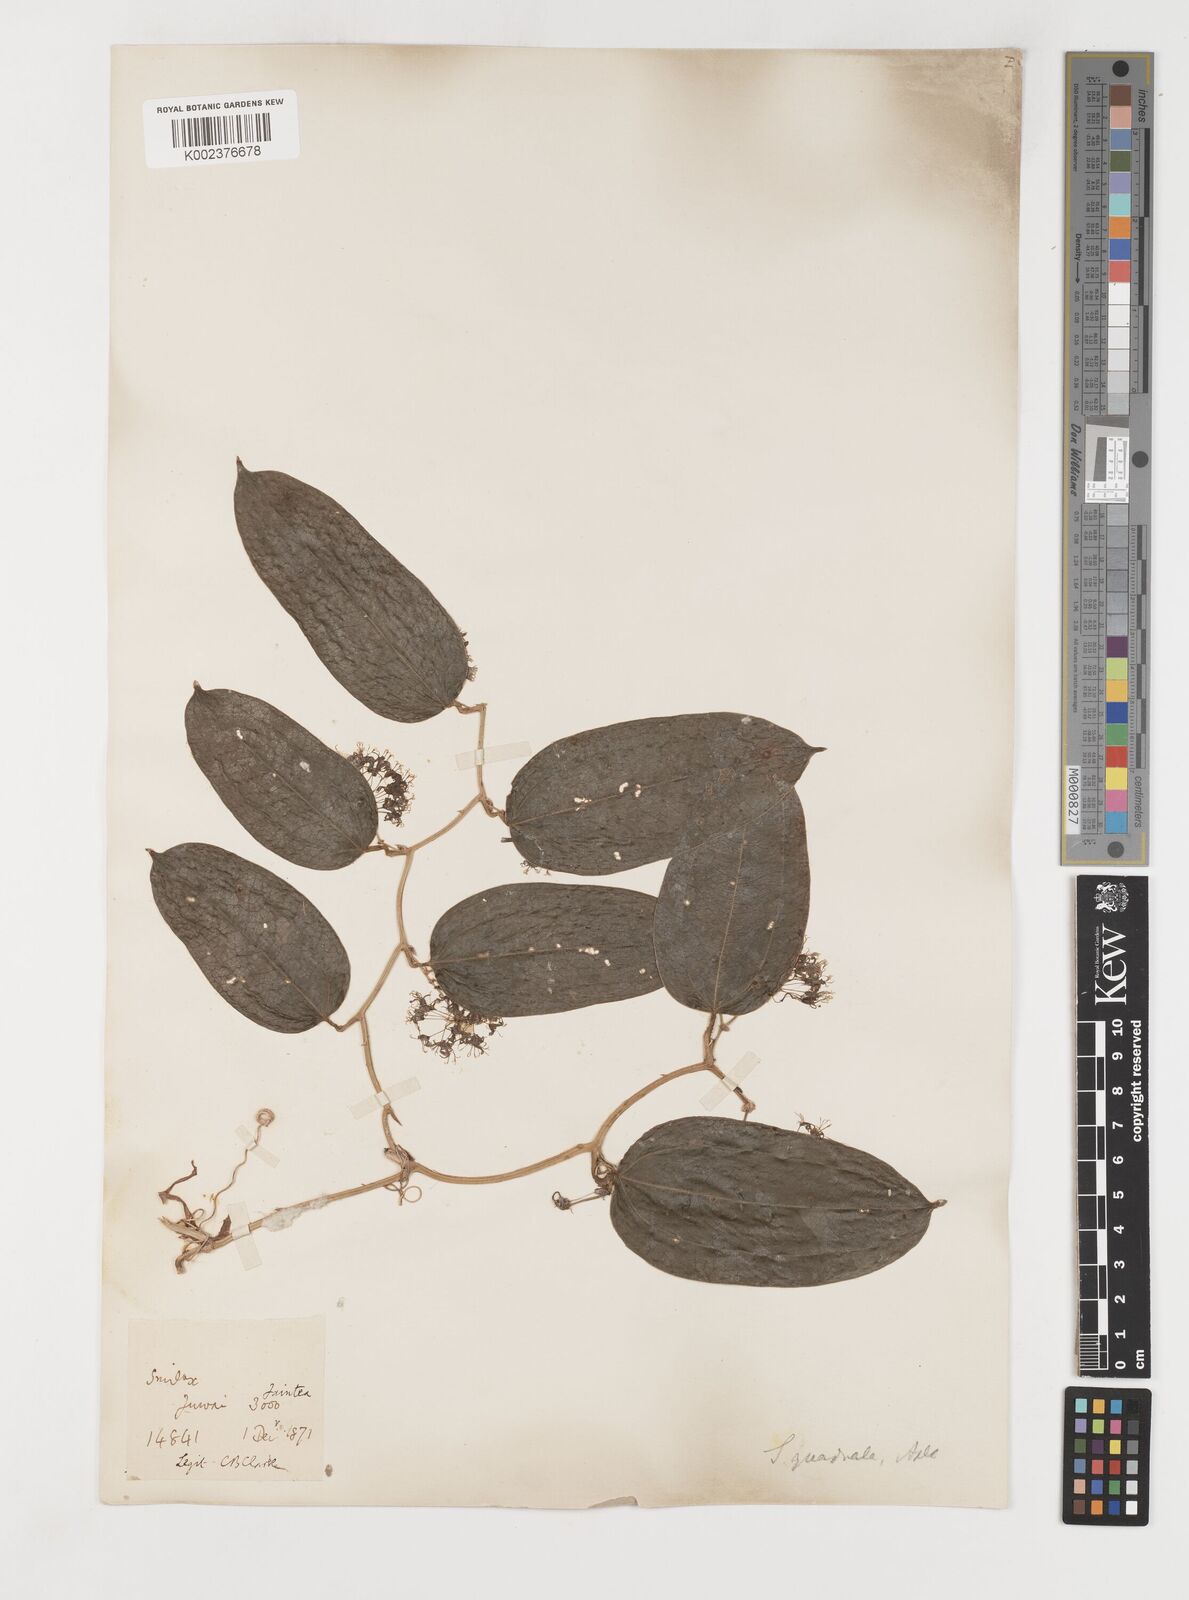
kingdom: Plantae
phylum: Tracheophyta
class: Liliopsida
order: Liliales
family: Smilacaceae
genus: Smilax
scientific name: Smilax quadrata
